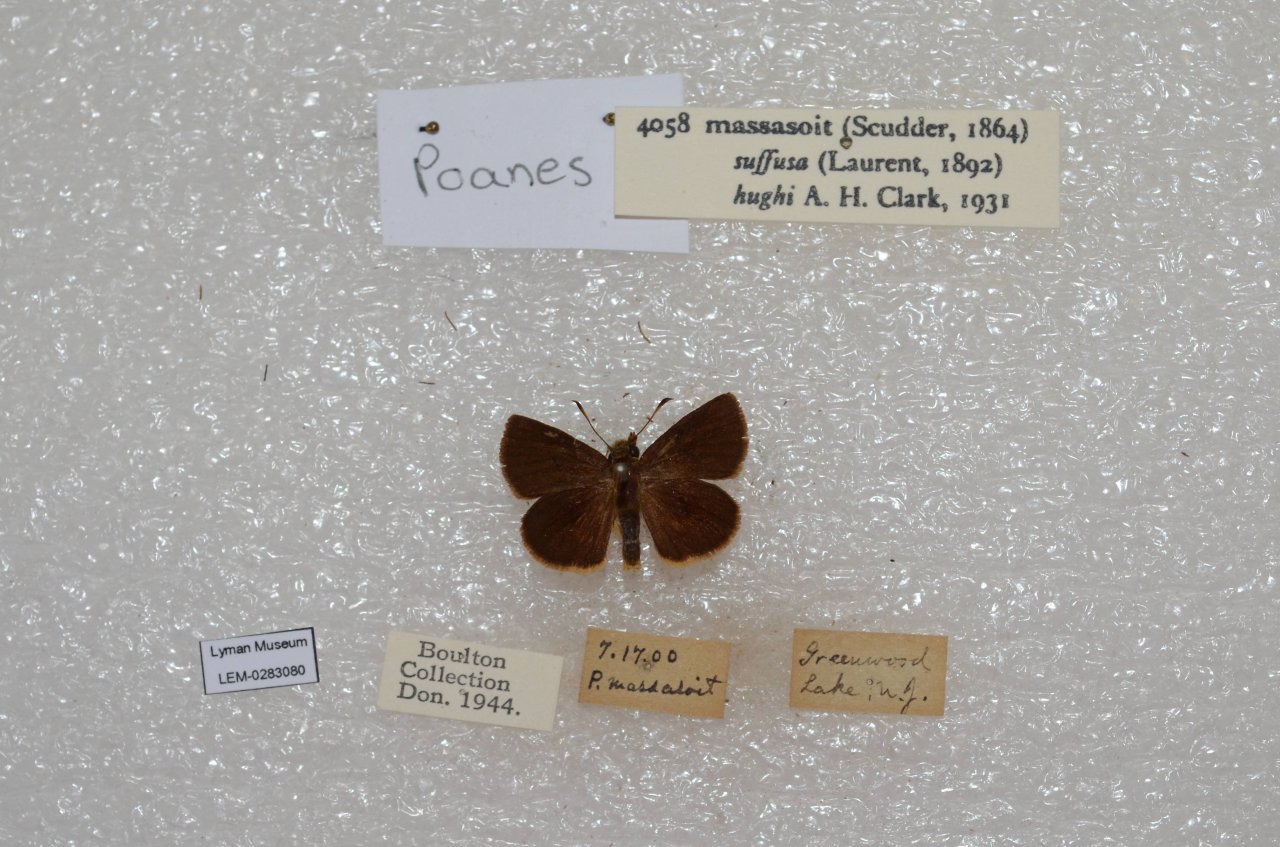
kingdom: Animalia
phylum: Arthropoda
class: Insecta
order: Lepidoptera
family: Hesperiidae
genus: Poanes
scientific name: Poanes massasoit
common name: Mulberry Wing
